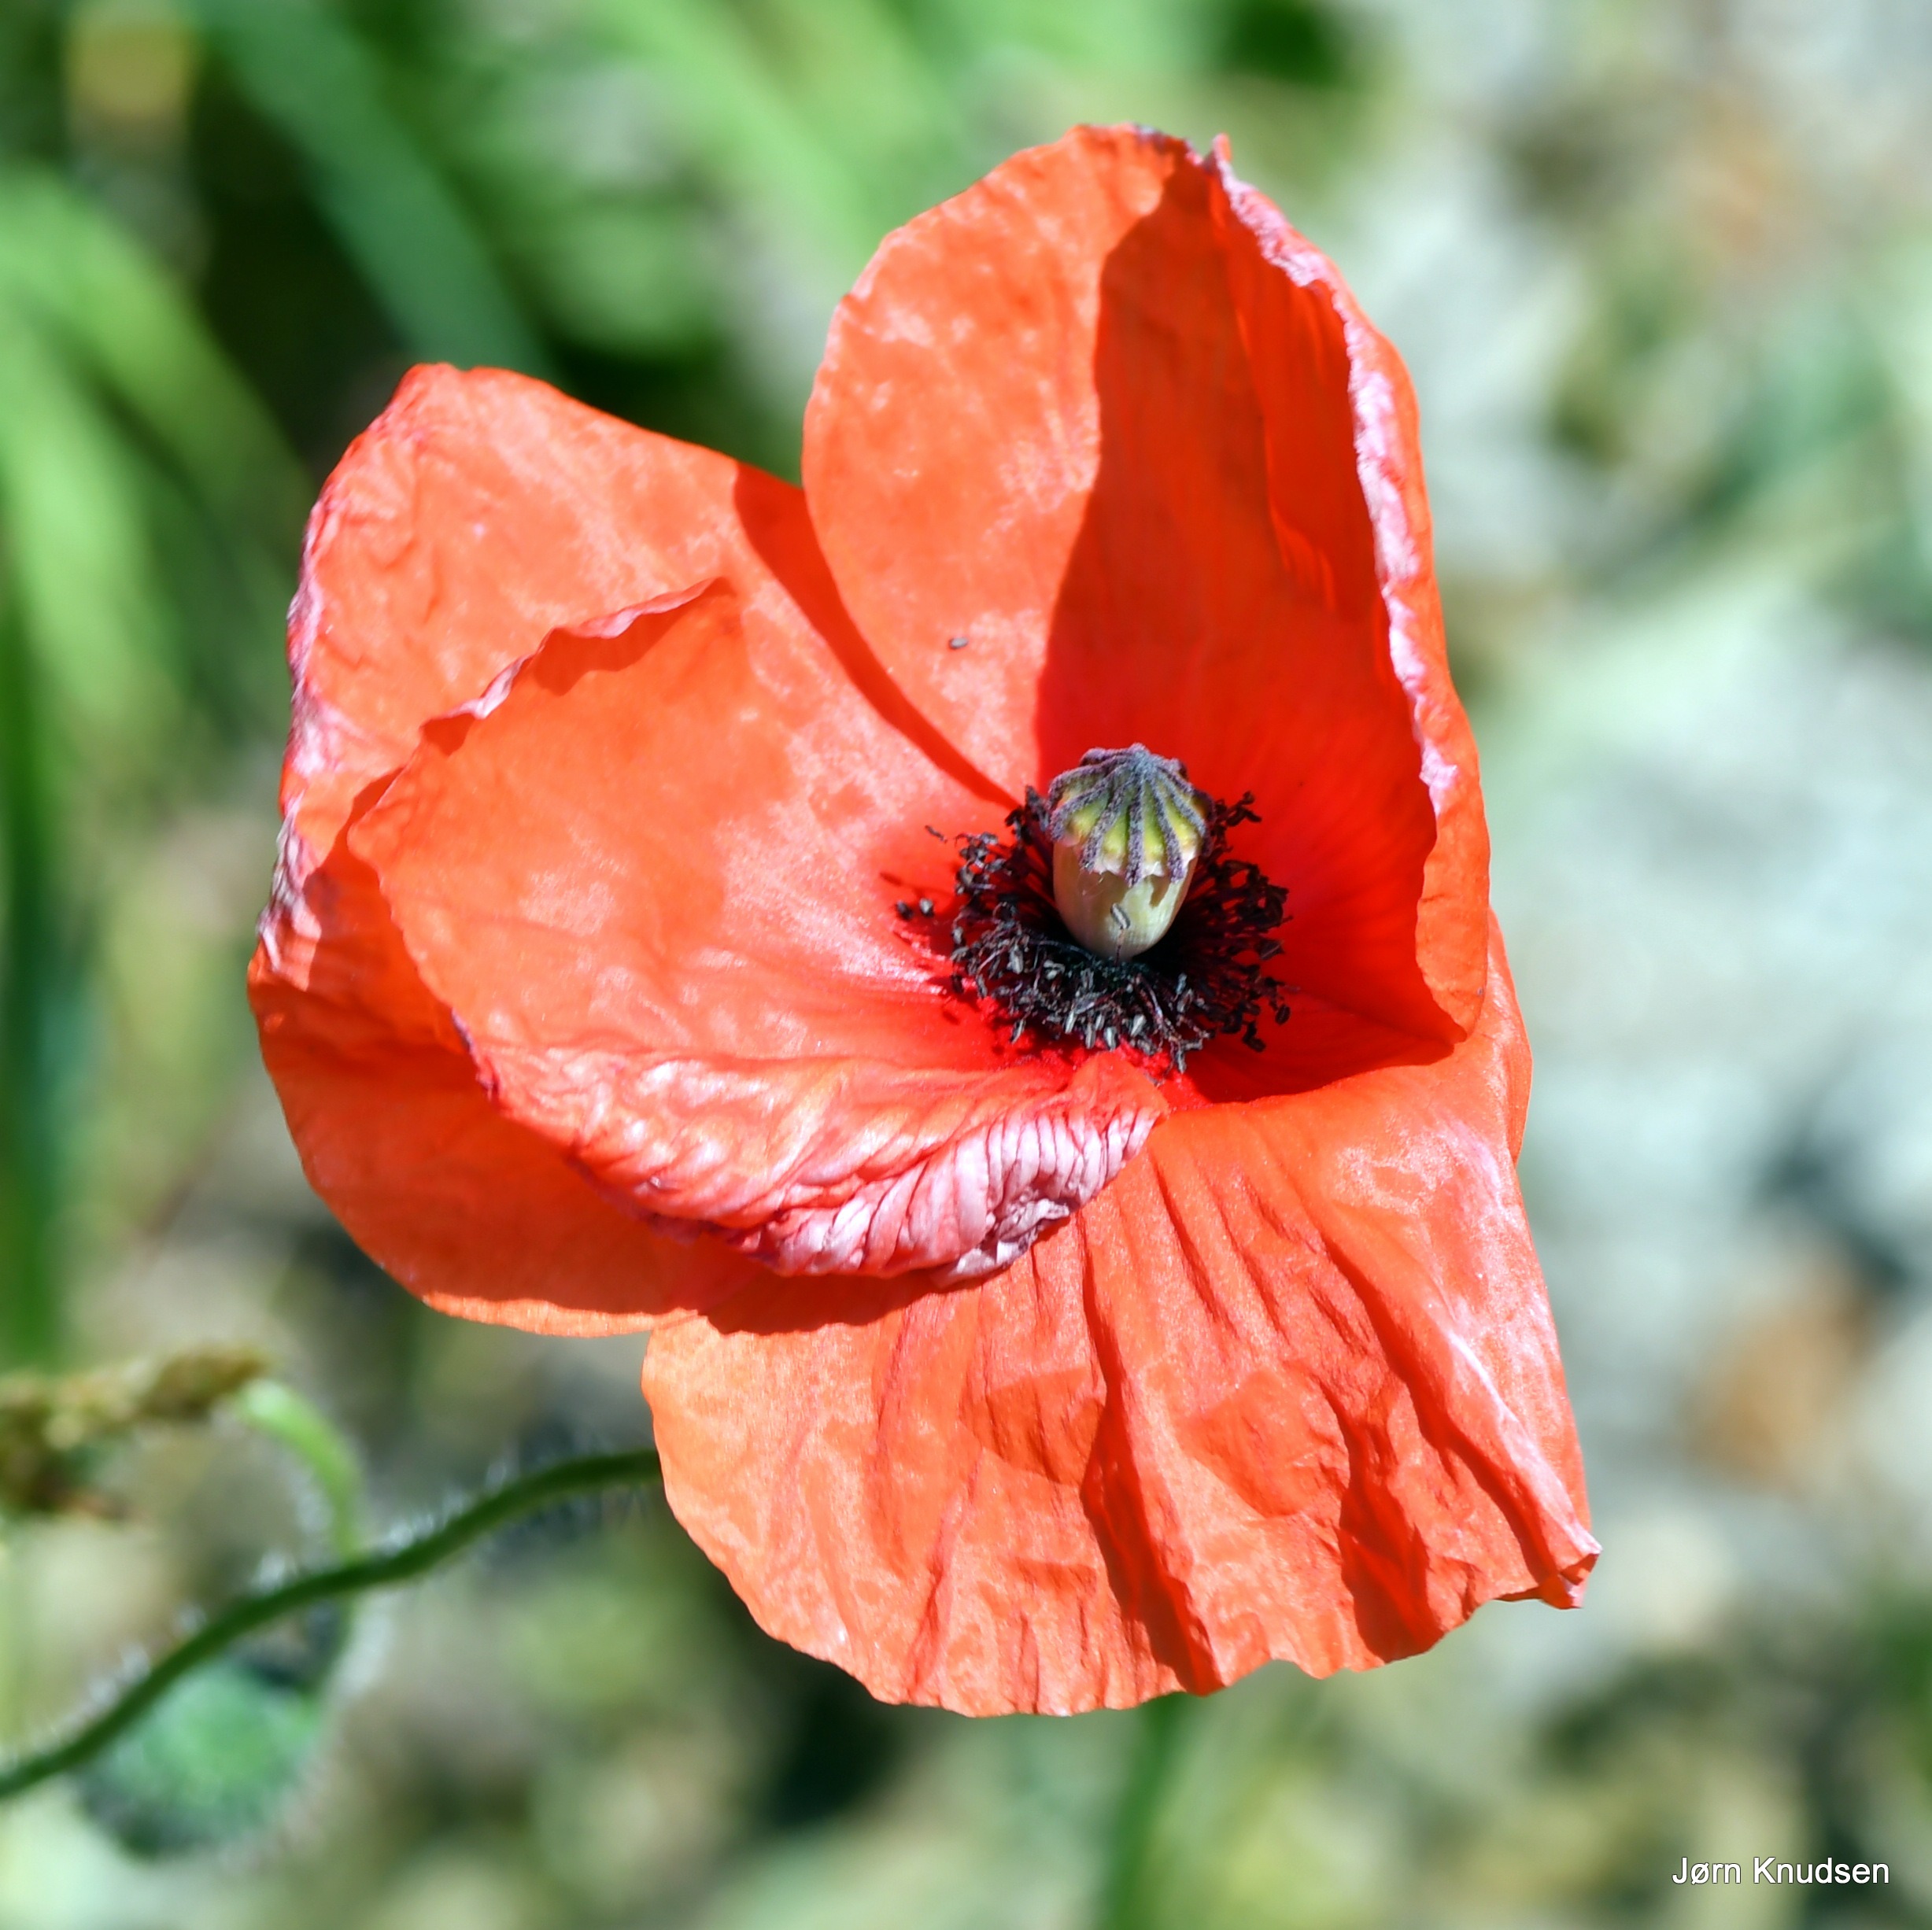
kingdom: Plantae
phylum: Tracheophyta
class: Magnoliopsida
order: Ranunculales
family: Papaveraceae
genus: Papaver
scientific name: Papaver rhoeas
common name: Korn-valmue
